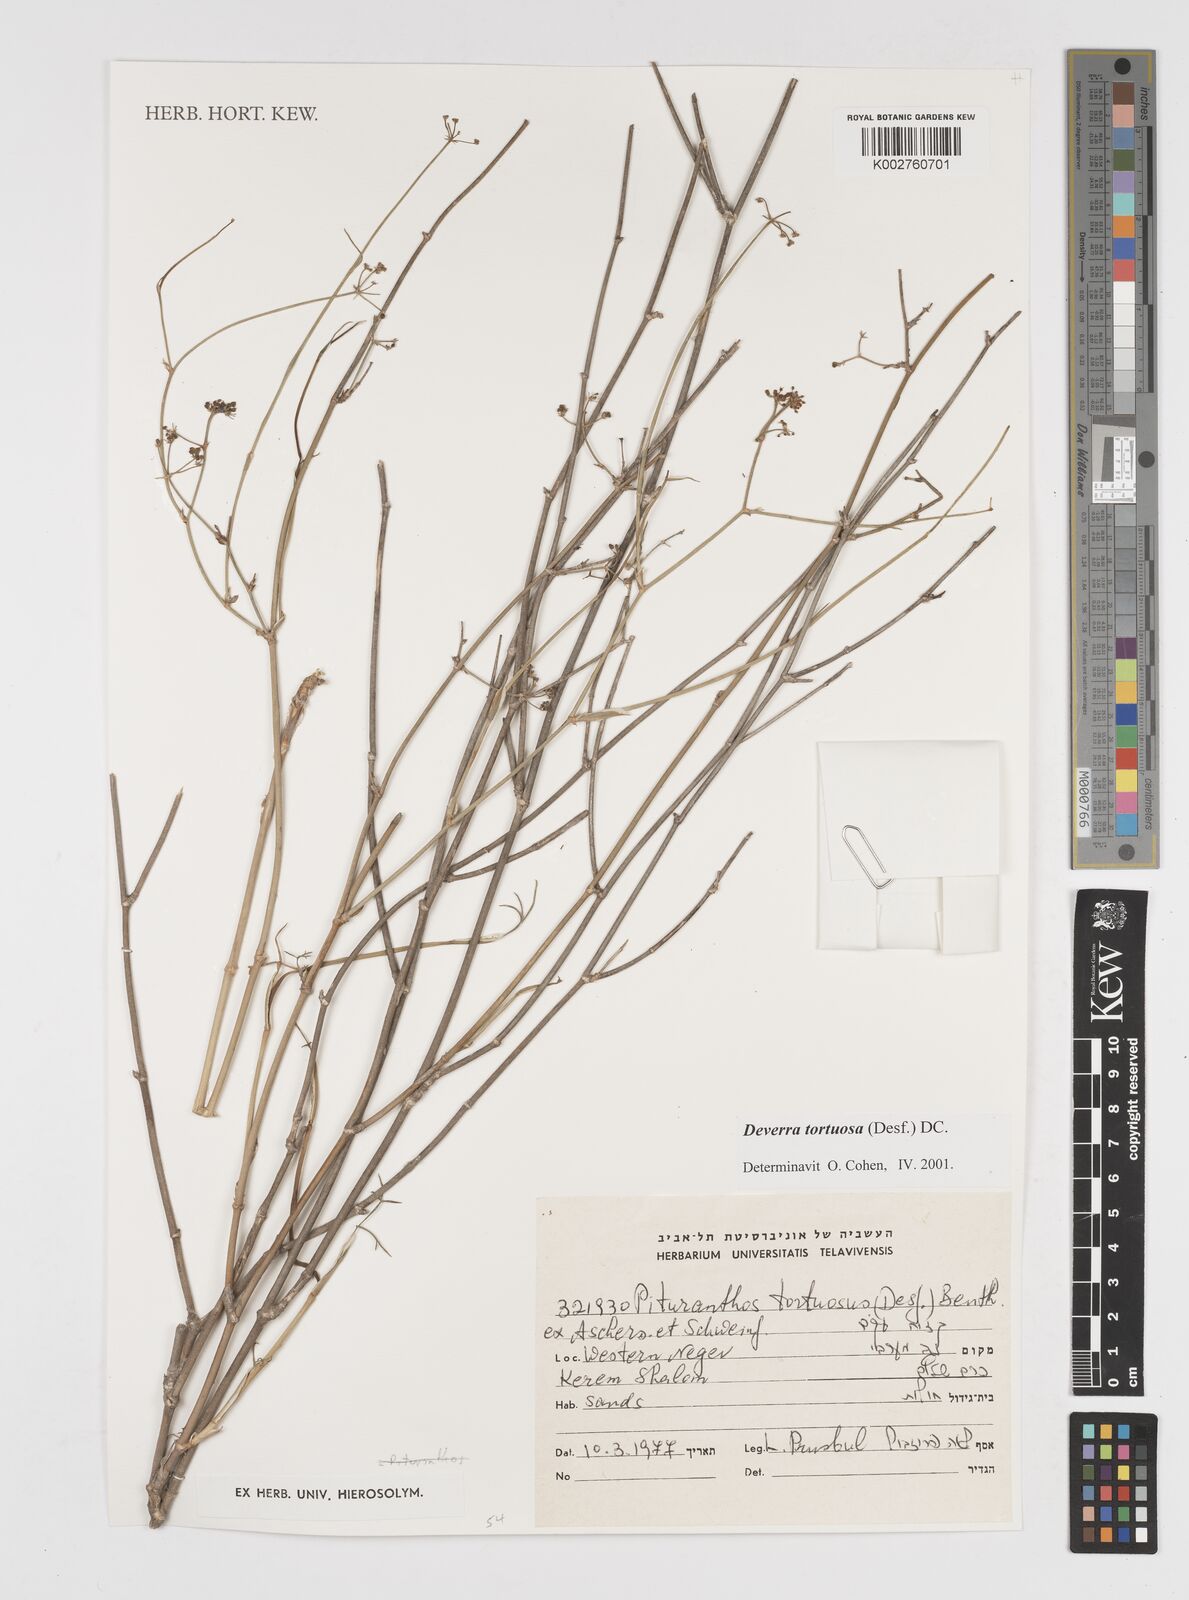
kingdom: Plantae
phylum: Tracheophyta
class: Magnoliopsida
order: Apiales
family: Apiaceae
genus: Deverra
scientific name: Deverra tortuosa
